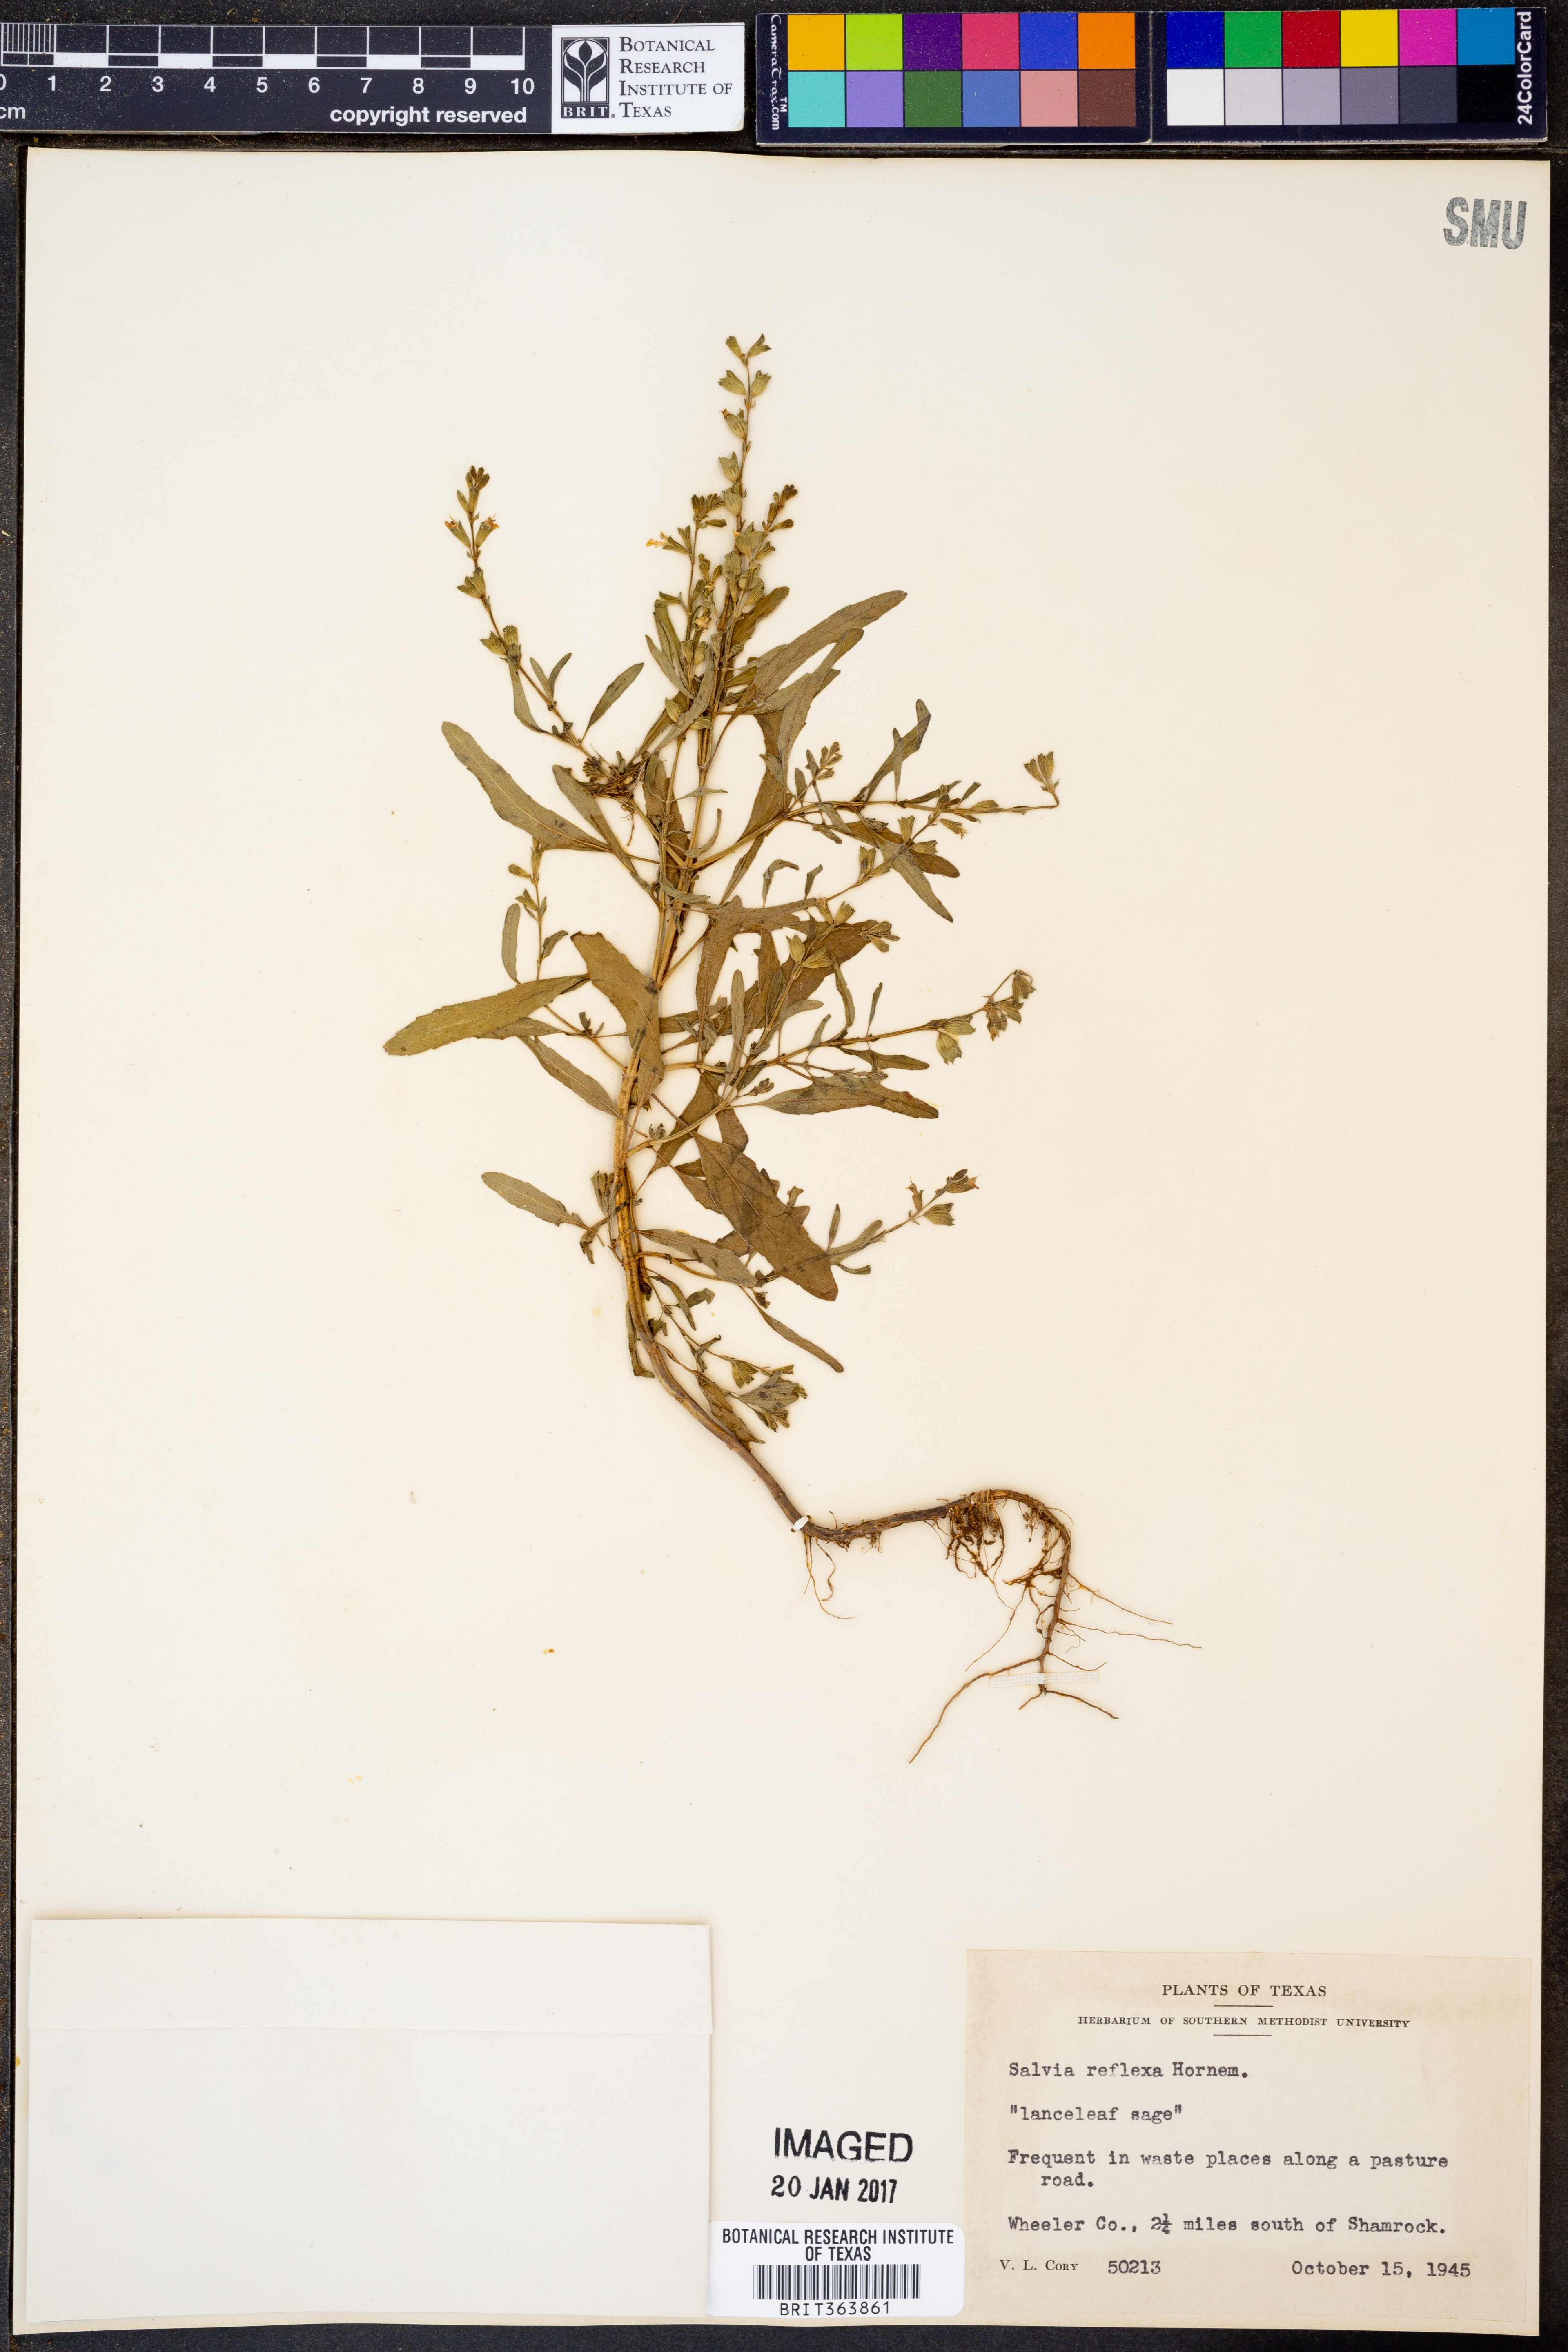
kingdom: Plantae
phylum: Tracheophyta
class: Magnoliopsida
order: Lamiales
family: Lamiaceae
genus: Salvia
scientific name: Salvia reflexa
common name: Mintweed
